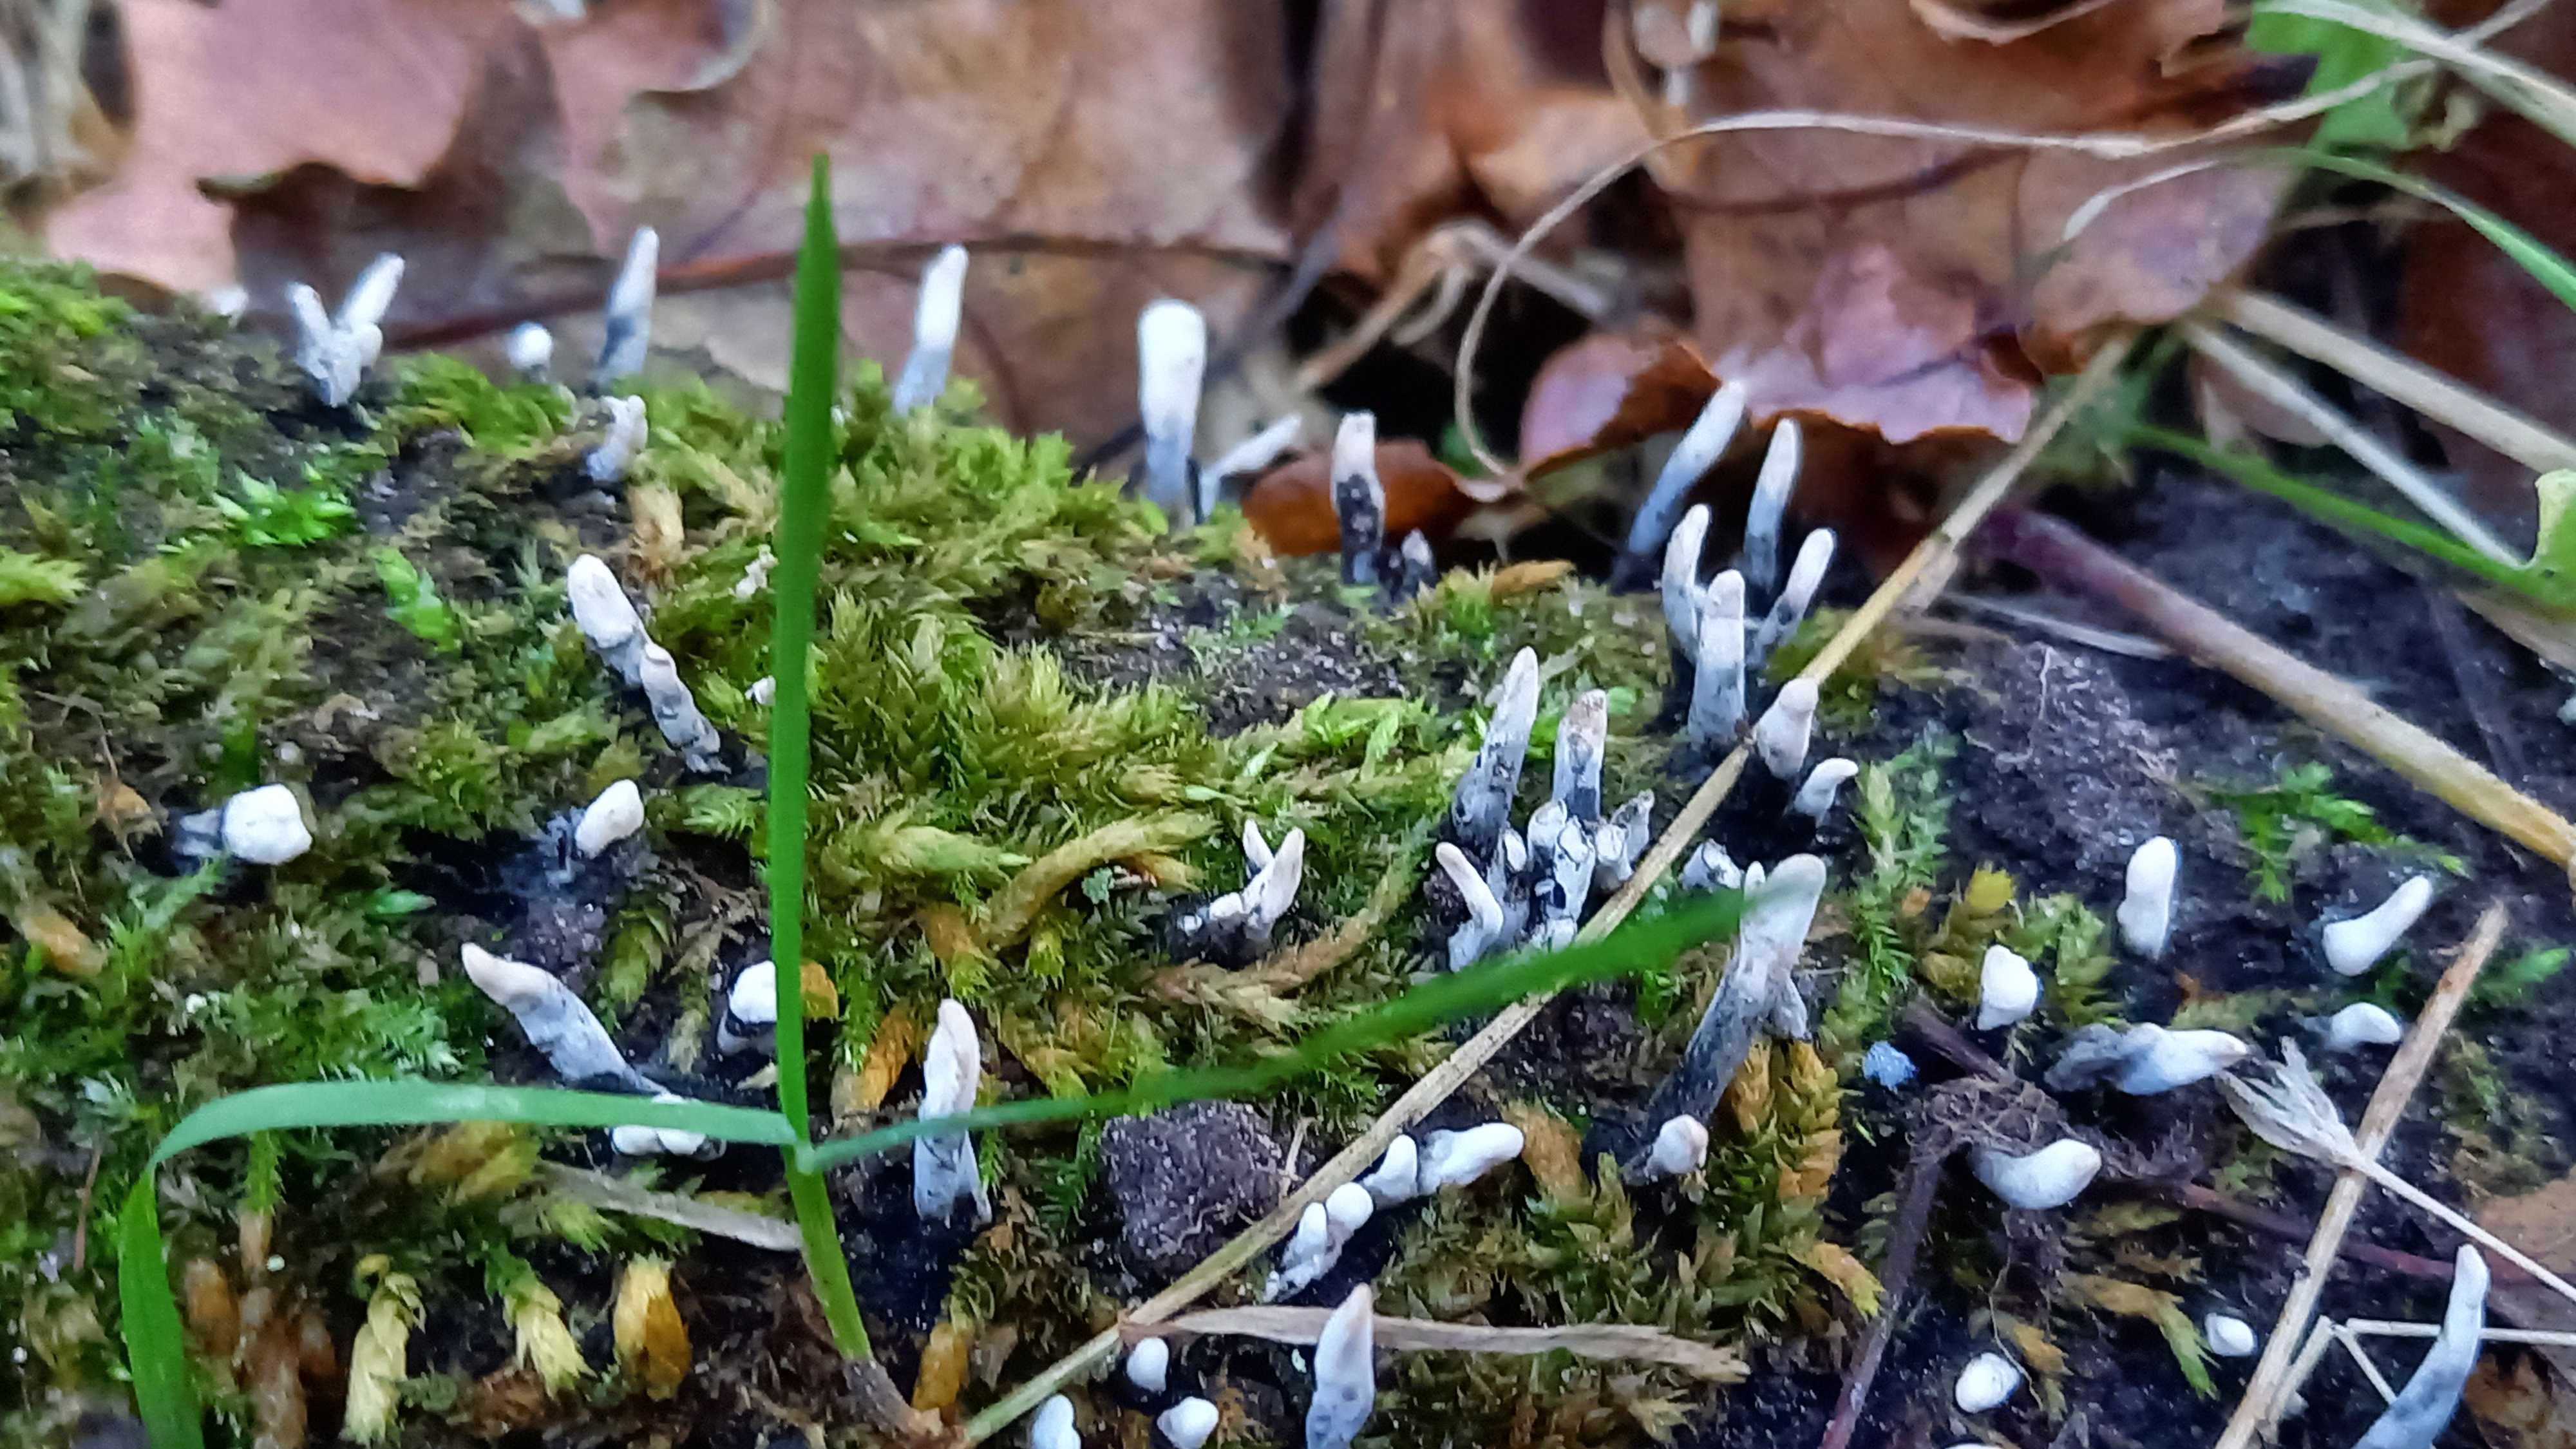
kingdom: Fungi
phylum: Ascomycota
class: Sordariomycetes
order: Xylariales
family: Xylariaceae
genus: Xylaria
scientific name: Xylaria hypoxylon
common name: grenet stødsvamp
